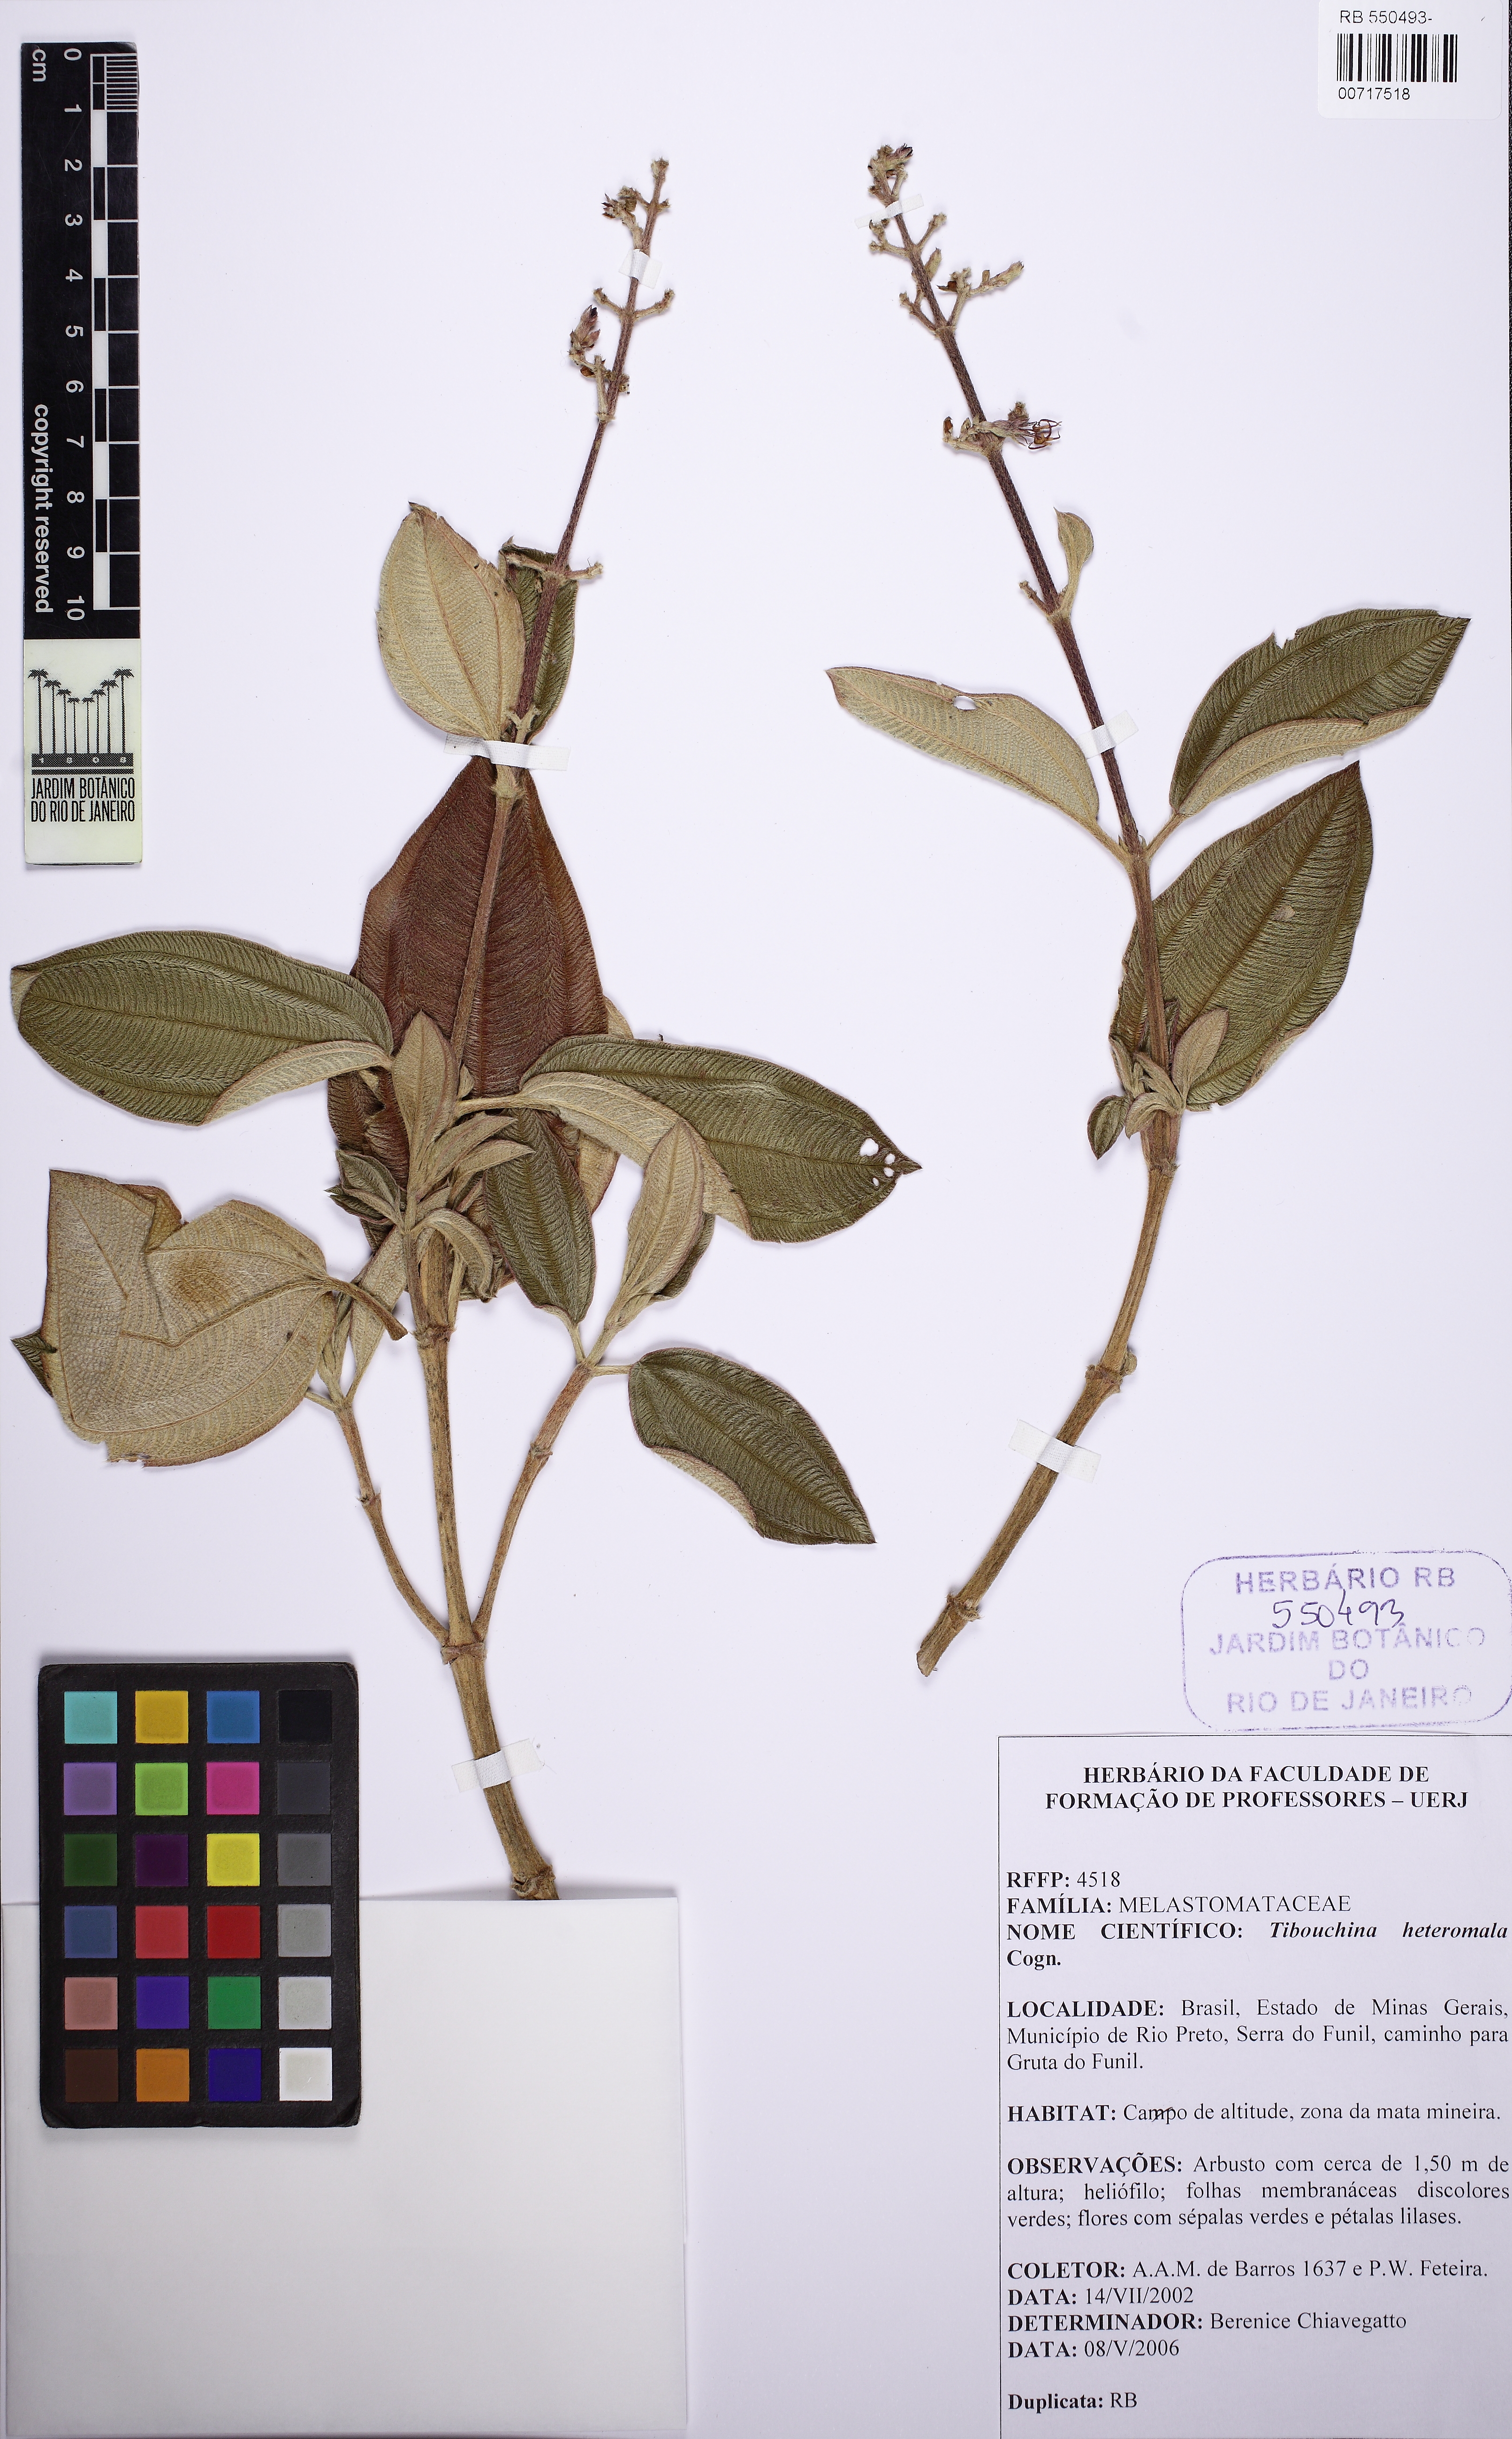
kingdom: Plantae
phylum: Tracheophyta
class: Magnoliopsida
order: Myrtales
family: Melastomataceae
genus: Pleroma
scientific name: Pleroma heteromallum
